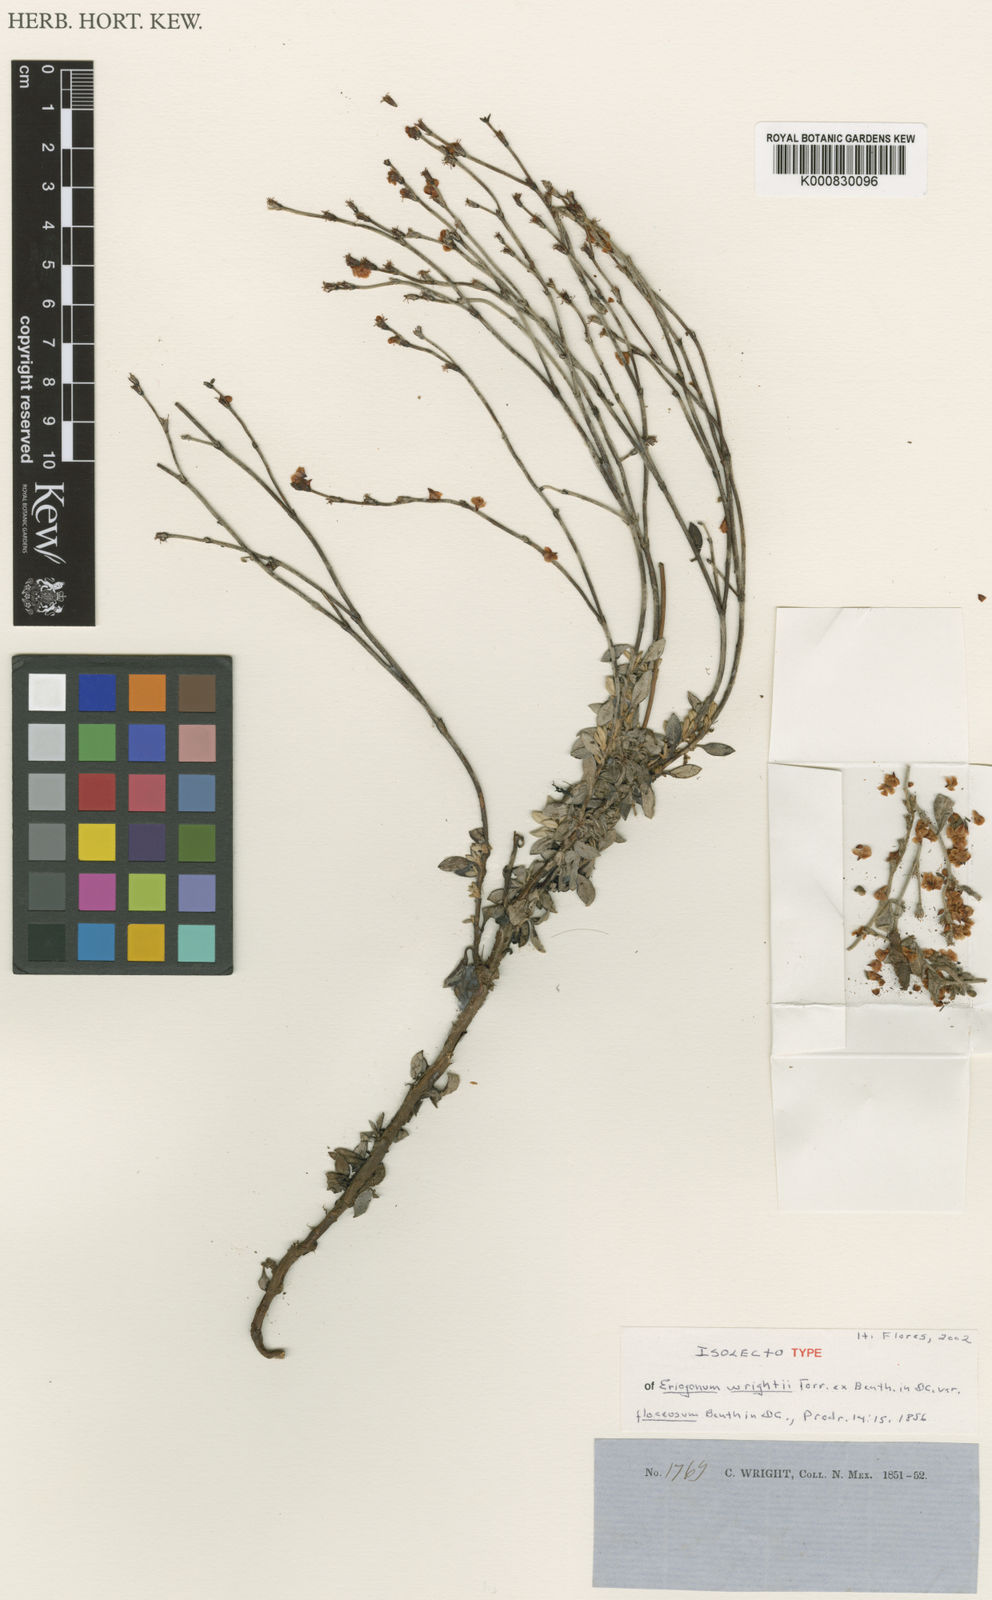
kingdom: Plantae
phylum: Tracheophyta
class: Magnoliopsida
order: Caryophyllales
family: Polygonaceae
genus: Eriogonum
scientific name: Eriogonum wrightii
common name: Bastard-sage
